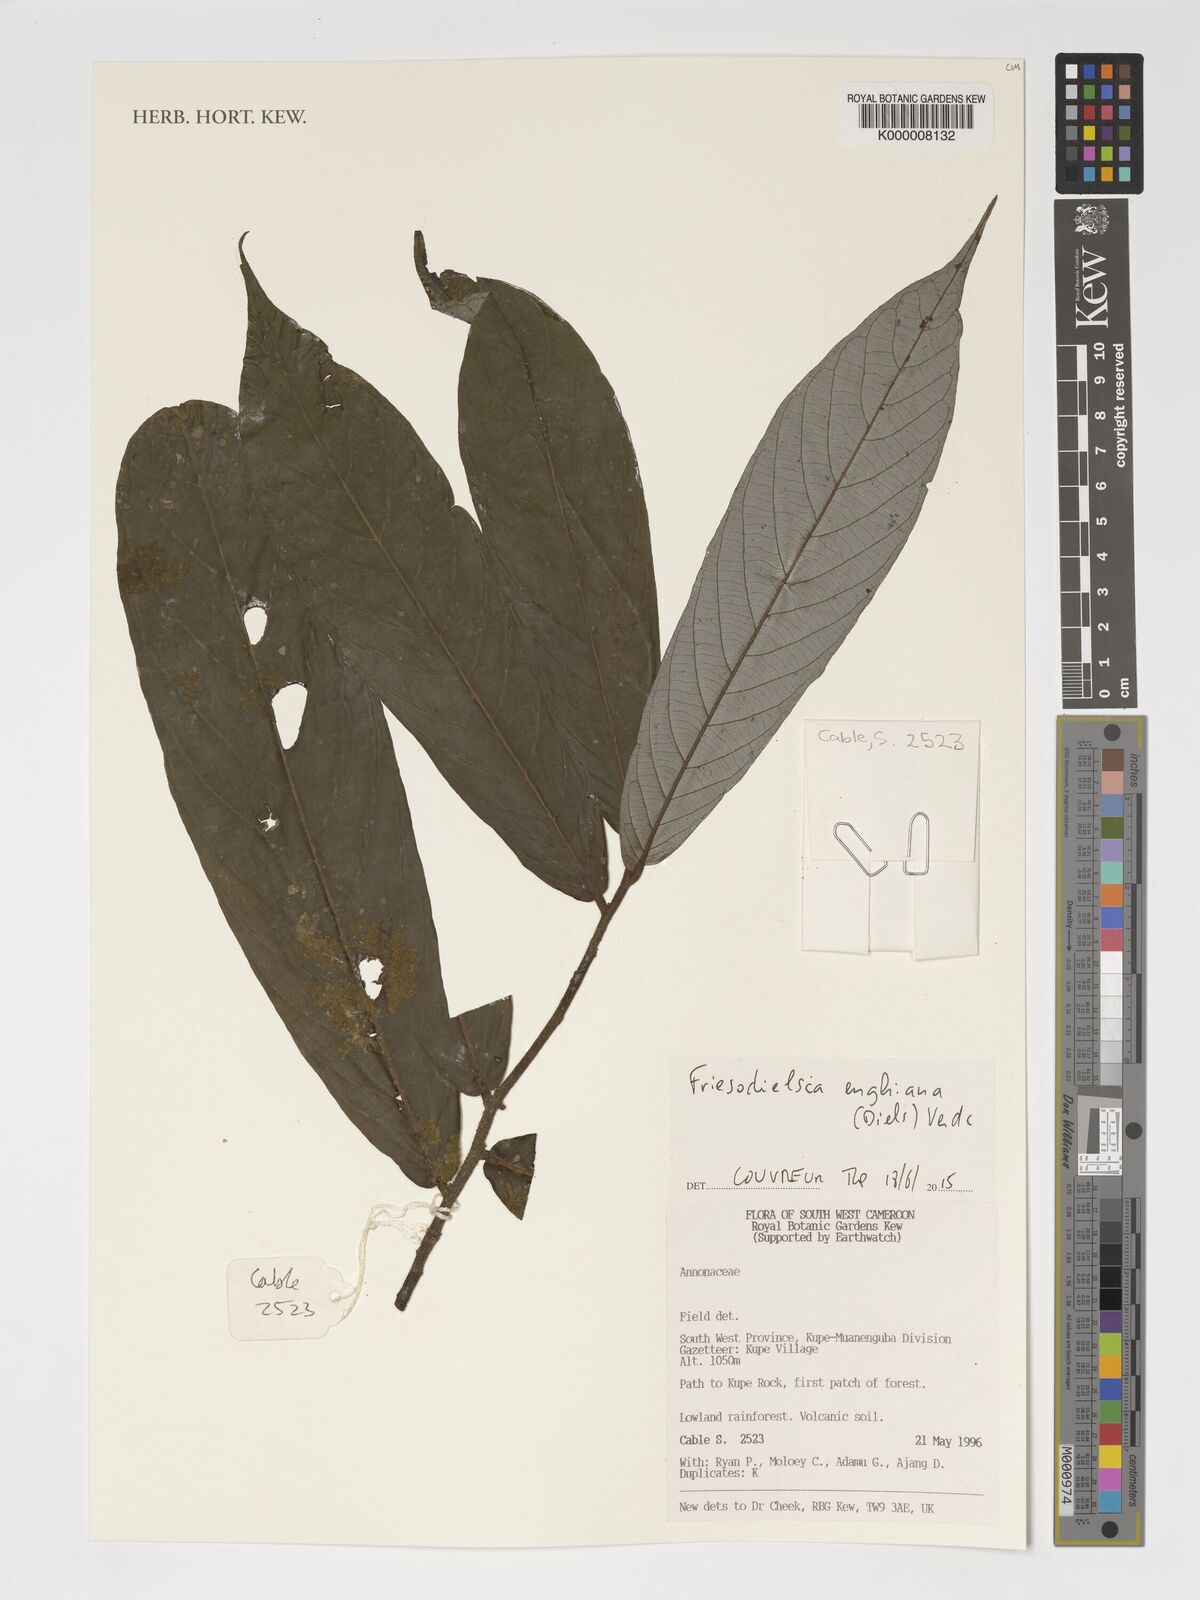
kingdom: Plantae
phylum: Tracheophyta
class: Magnoliopsida
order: Magnoliales
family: Annonaceae
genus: Friesodielsia
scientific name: Friesodielsia enghiana
